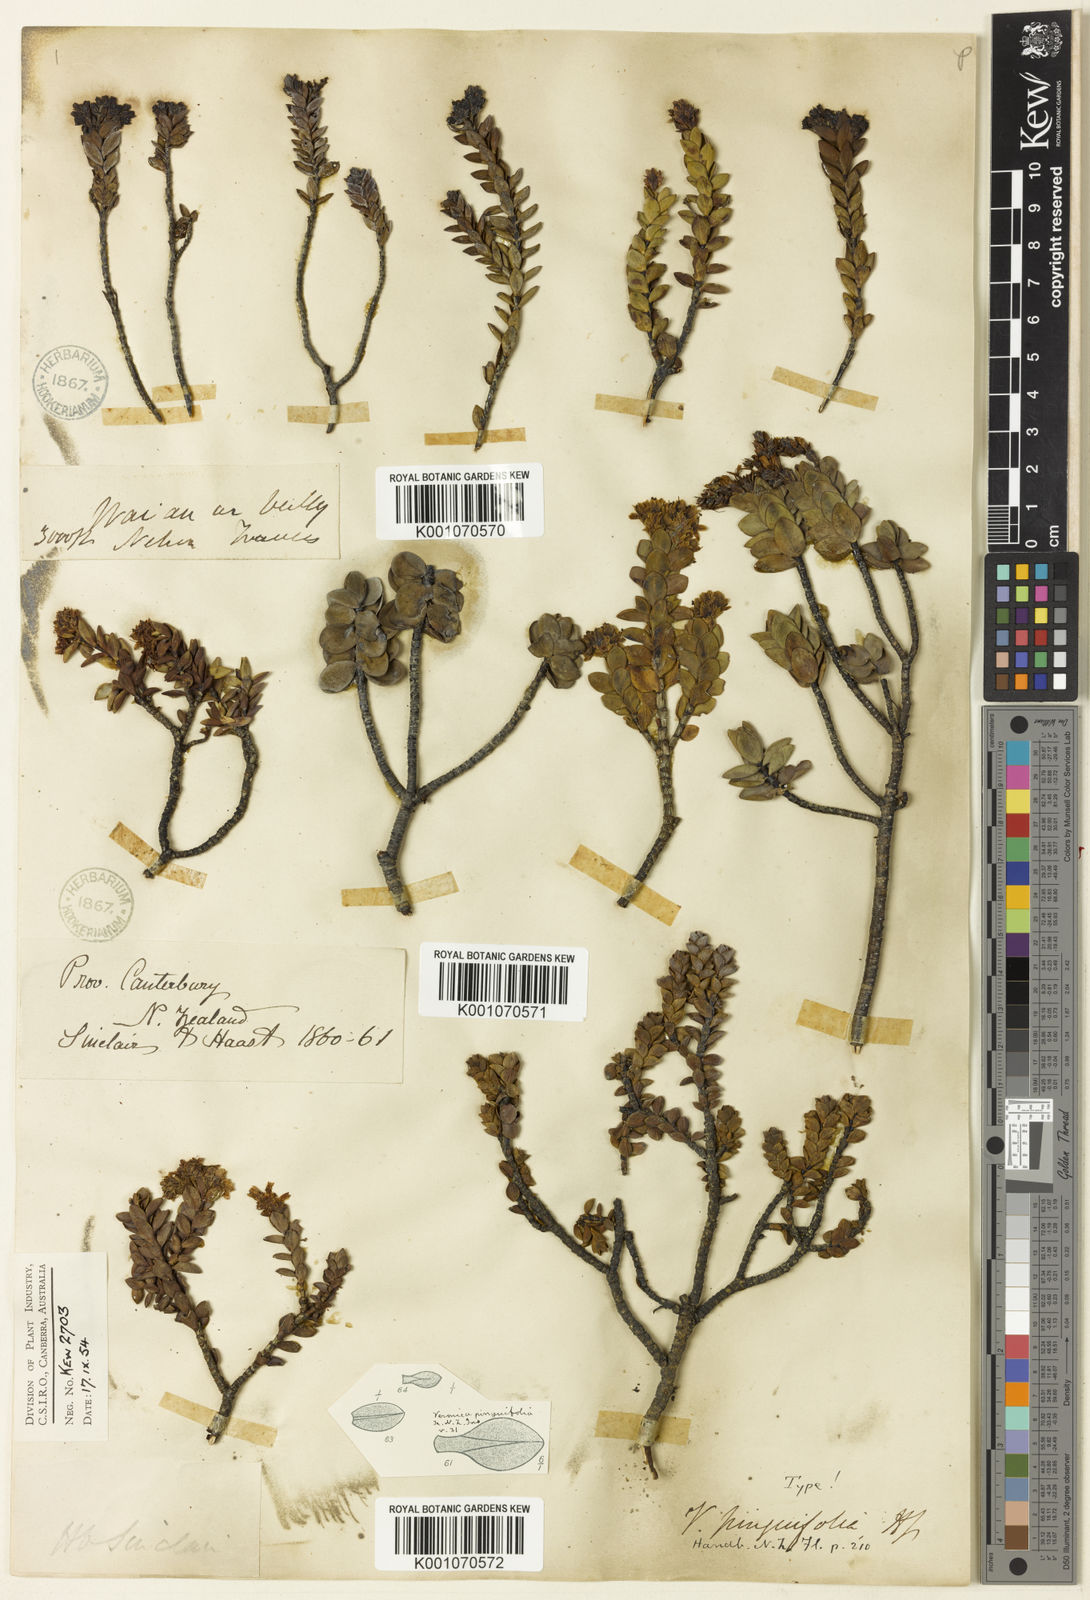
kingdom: Plantae
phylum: Tracheophyta
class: Magnoliopsida
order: Lamiales
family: Plantaginaceae
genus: Veronica
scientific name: Veronica pinguifolia
